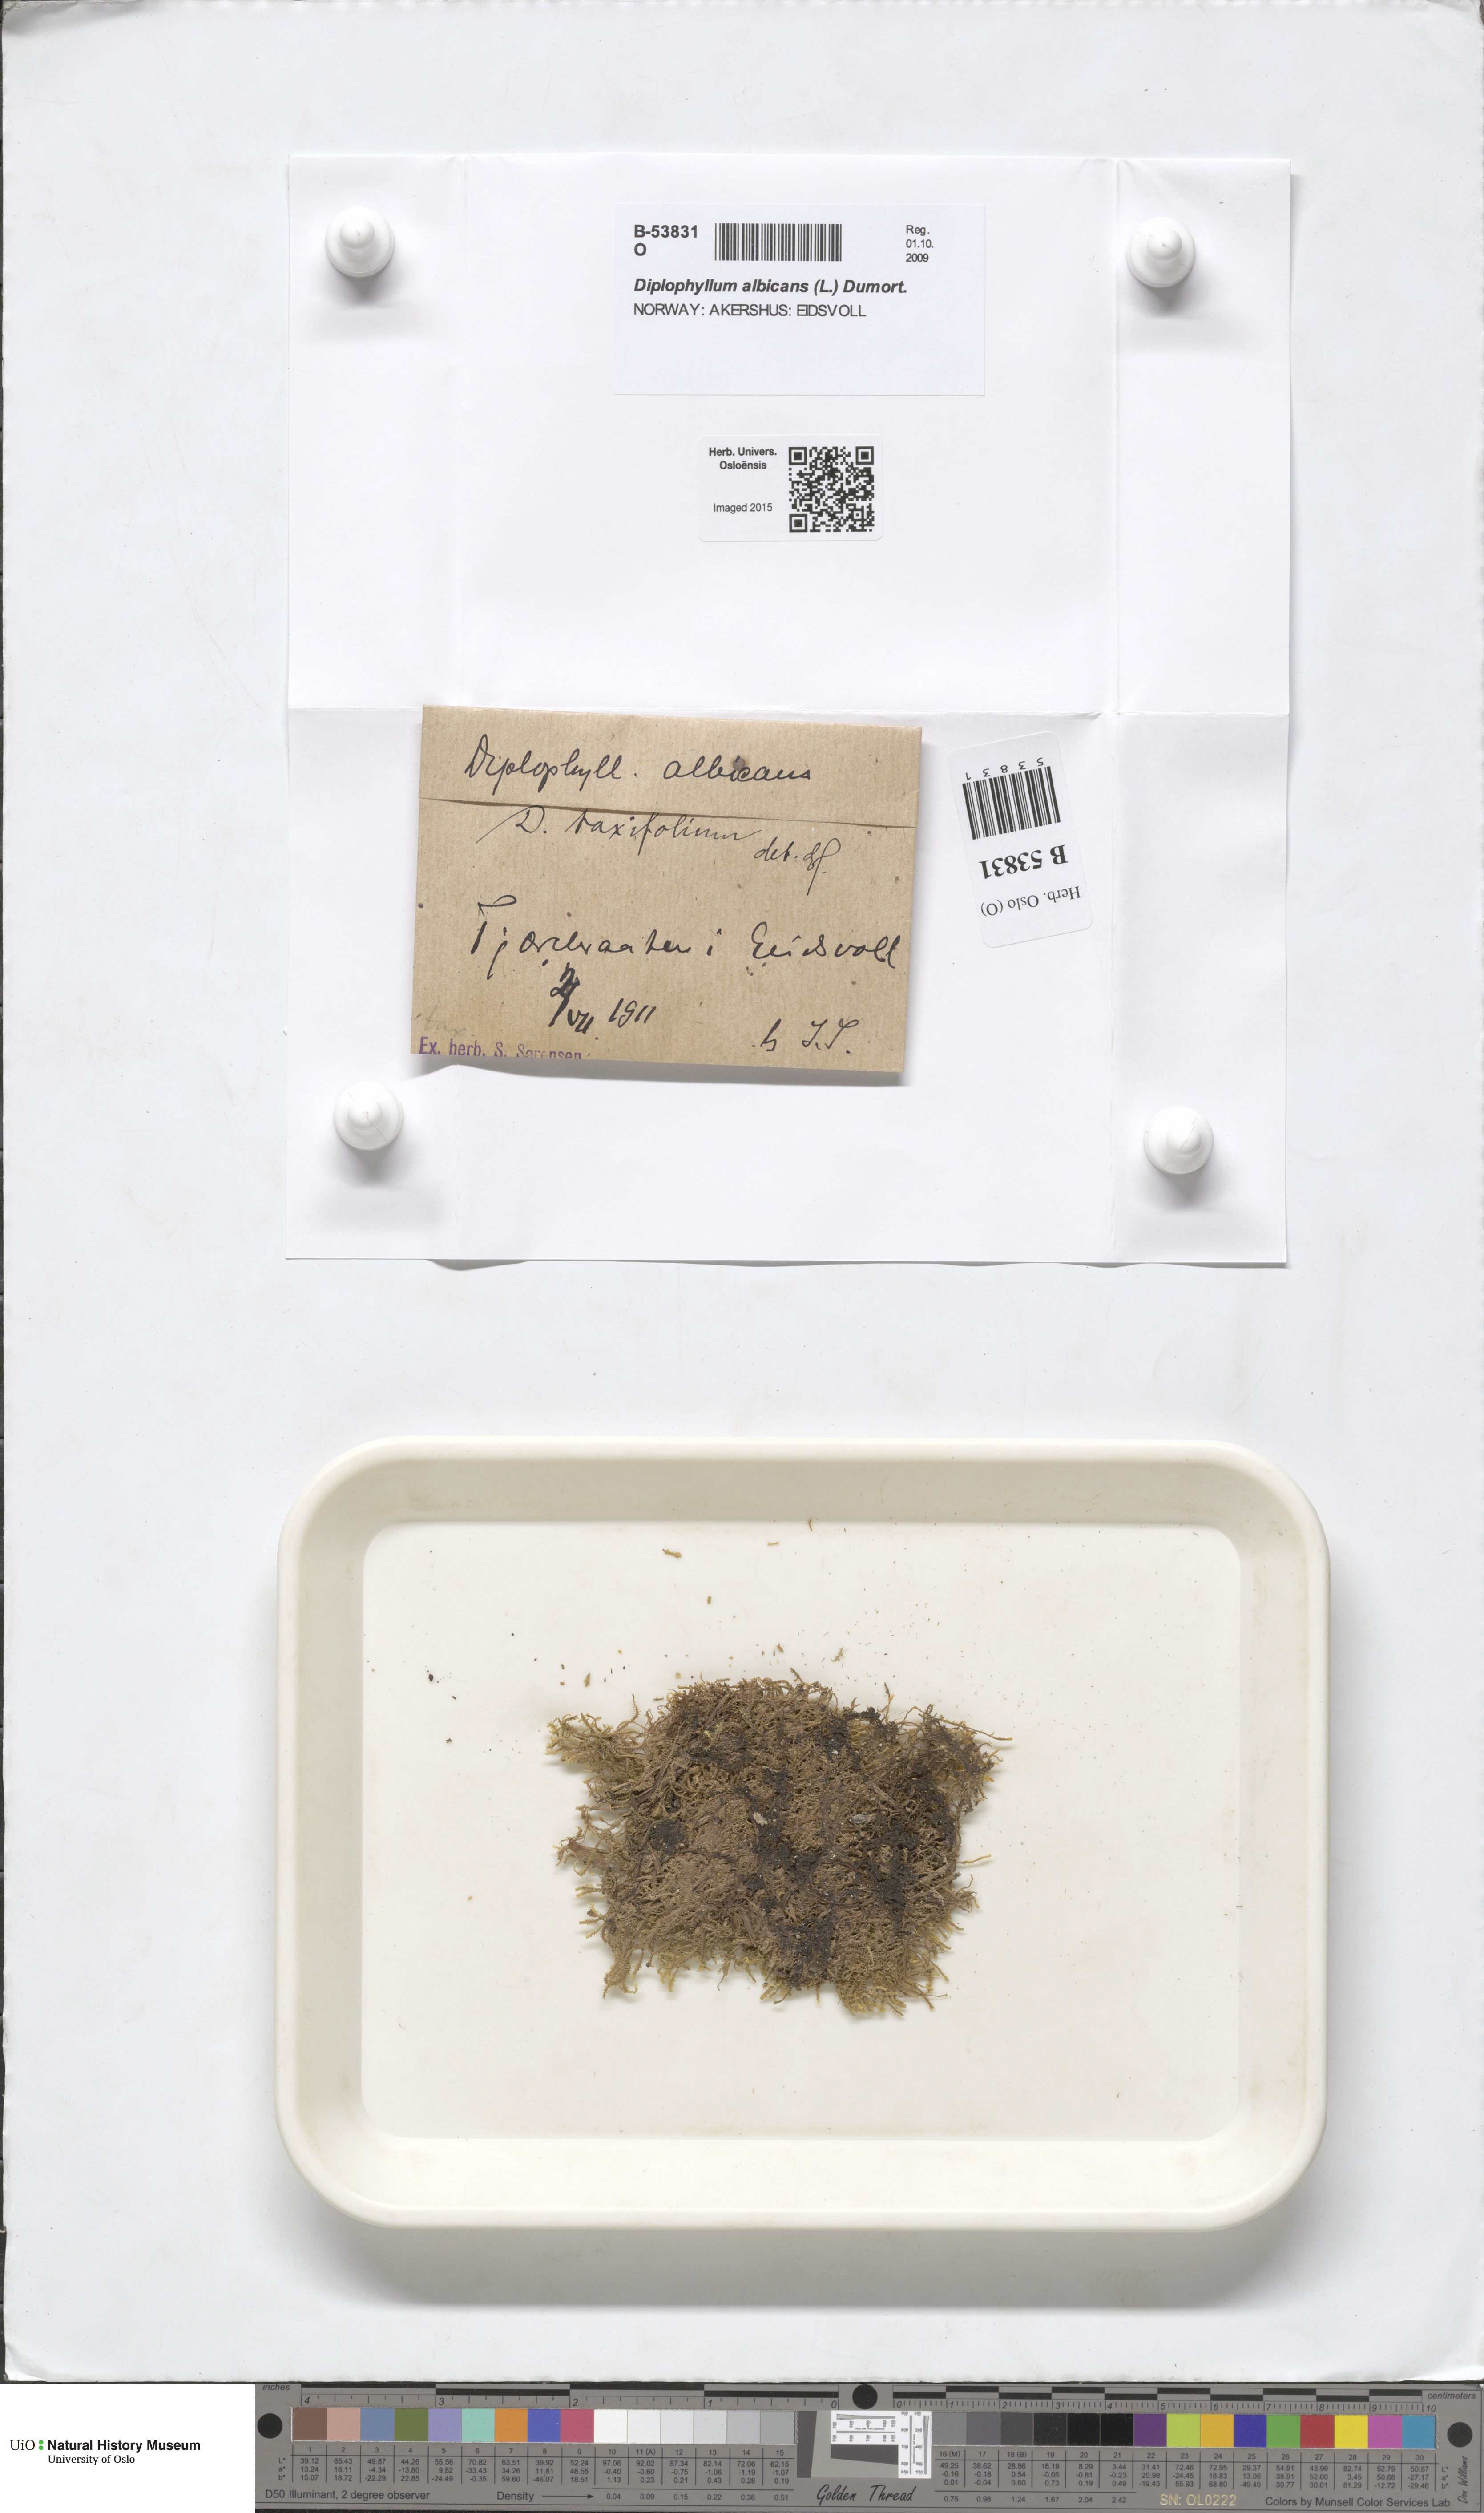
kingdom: Plantae
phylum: Marchantiophyta
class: Jungermanniopsida
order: Jungermanniales
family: Scapaniaceae
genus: Diplophyllum
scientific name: Diplophyllum taxifolium
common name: Alpine earwort
